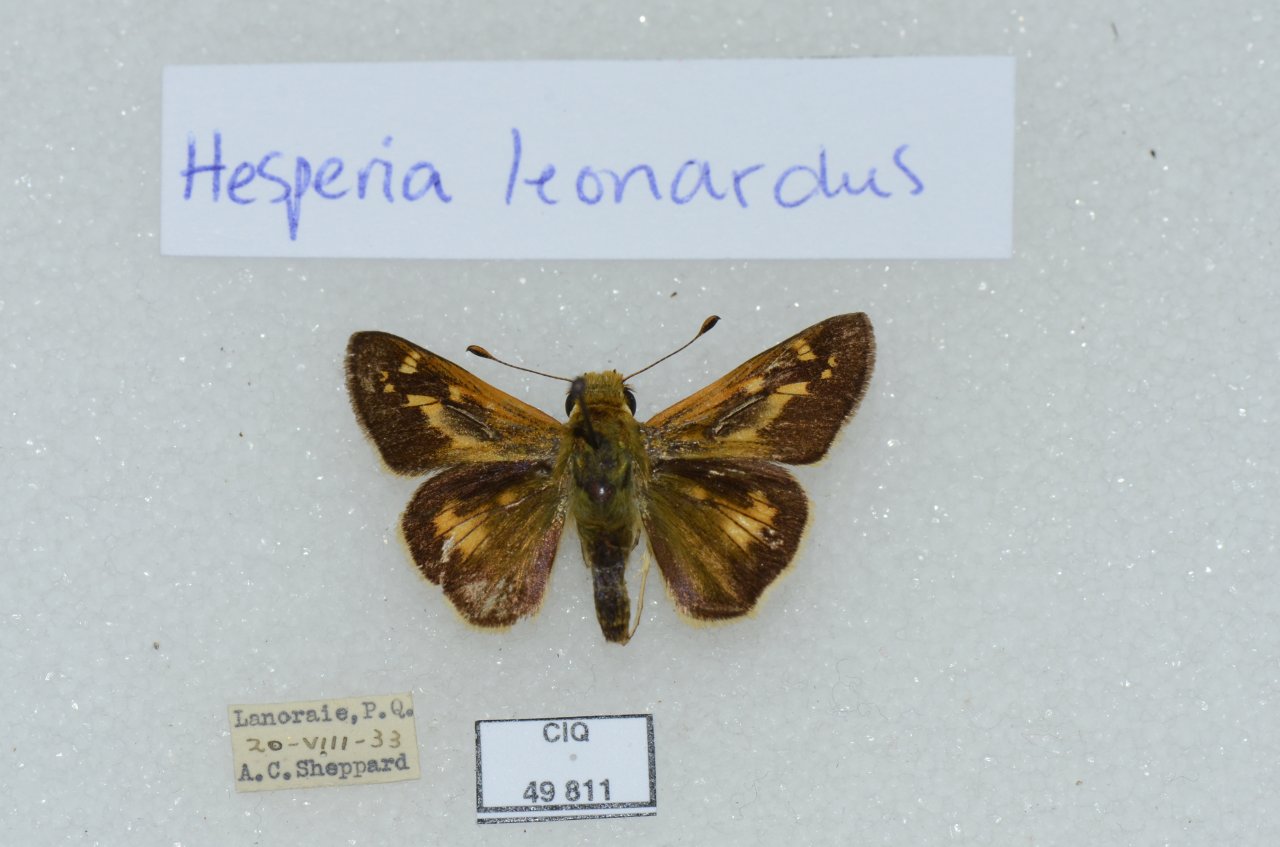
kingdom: Animalia
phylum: Arthropoda
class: Insecta
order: Lepidoptera
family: Hesperiidae
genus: Hesperia
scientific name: Hesperia comma
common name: Common Branded Skipper
